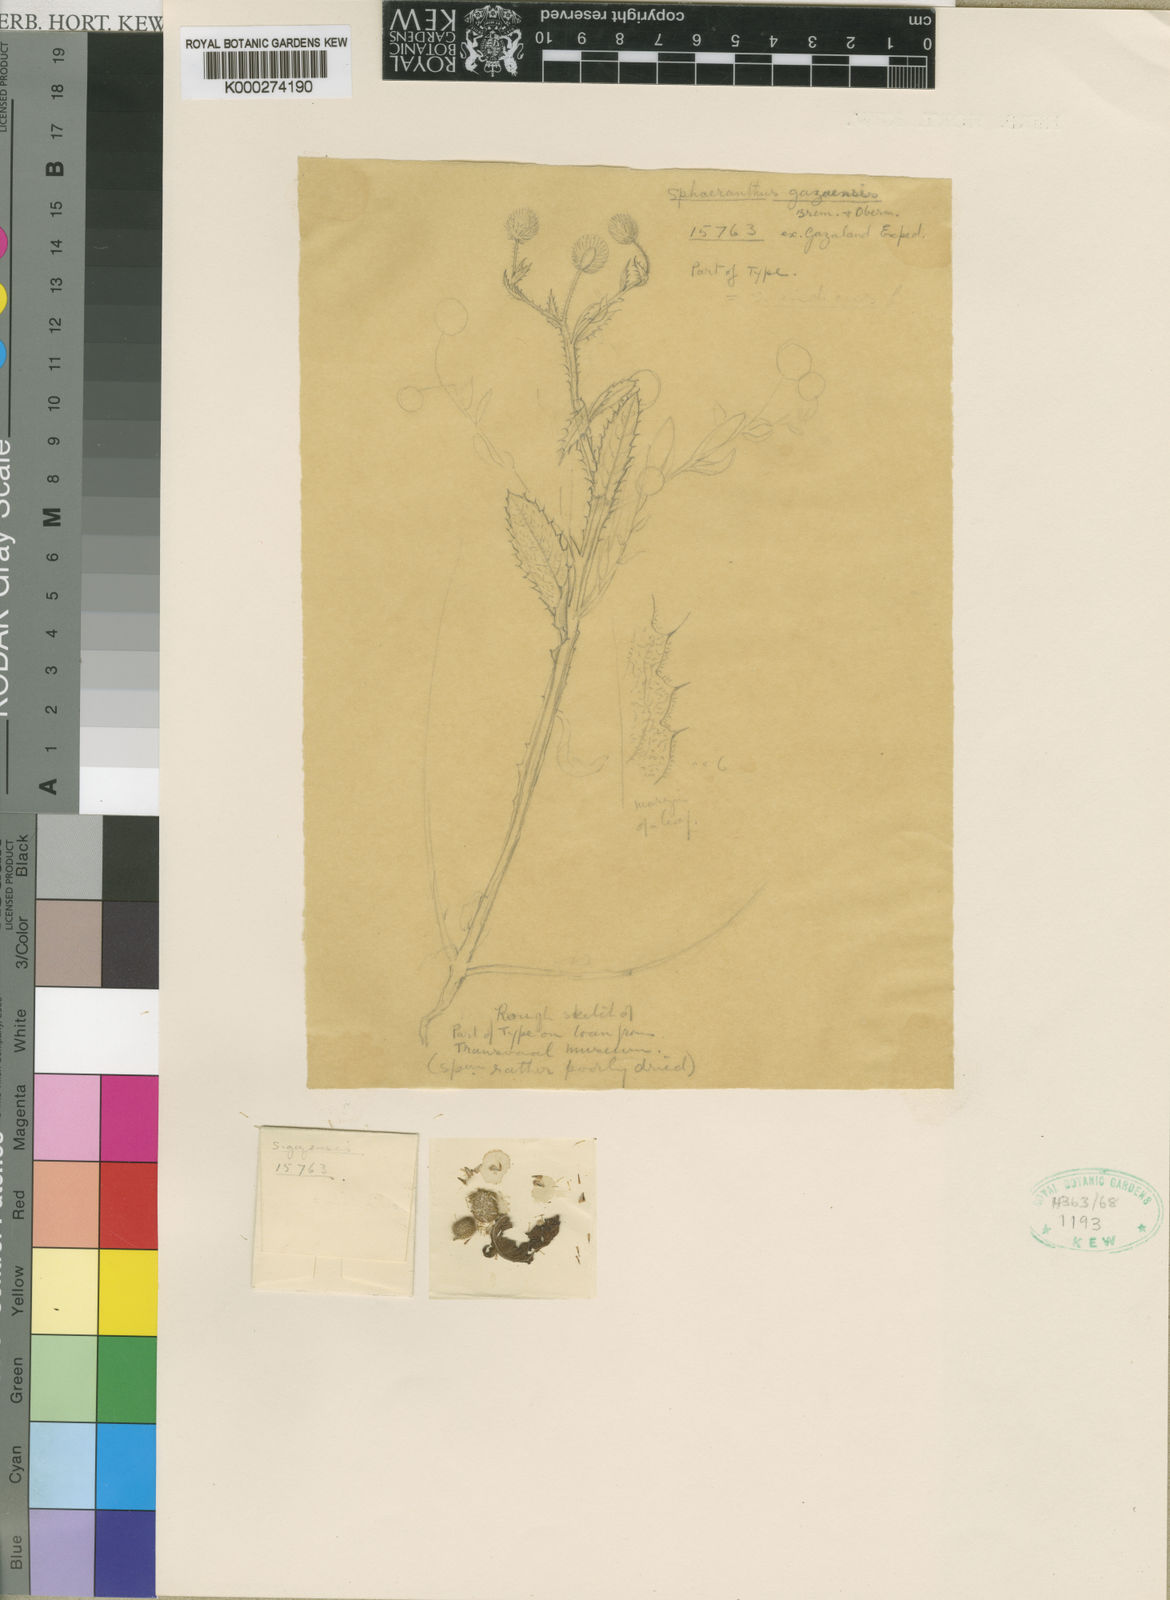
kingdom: Plantae
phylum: Tracheophyta
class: Magnoliopsida
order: Asterales
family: Asteraceae
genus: Sphaeranthus
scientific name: Sphaeranthus gazaensis
